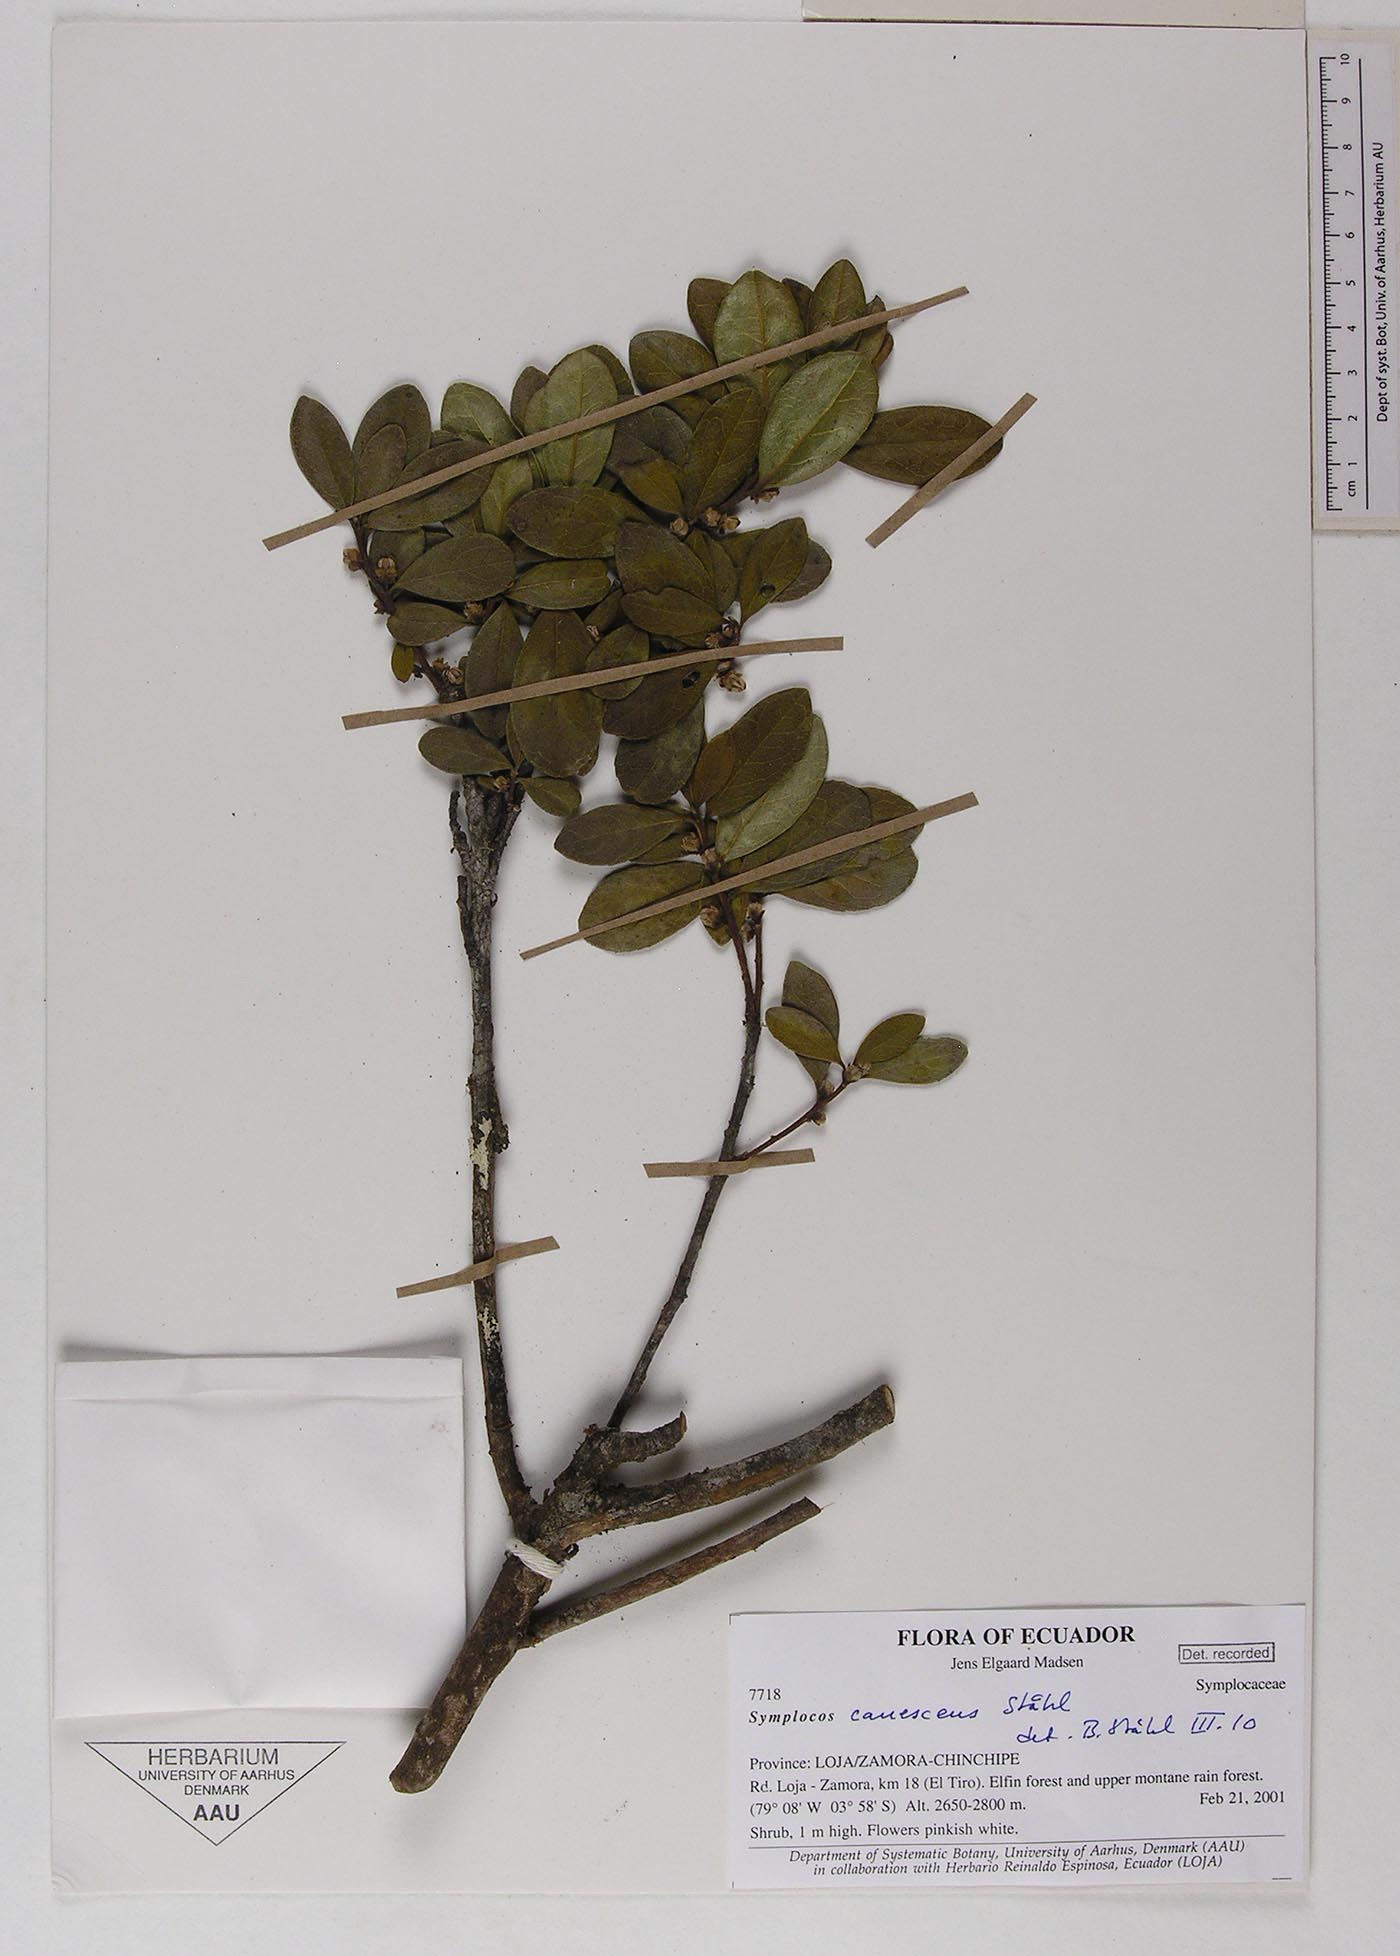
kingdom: Plantae
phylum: Tracheophyta
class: Magnoliopsida
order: Ericales
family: Symplocaceae
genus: Symplocos
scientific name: Symplocos canescens
